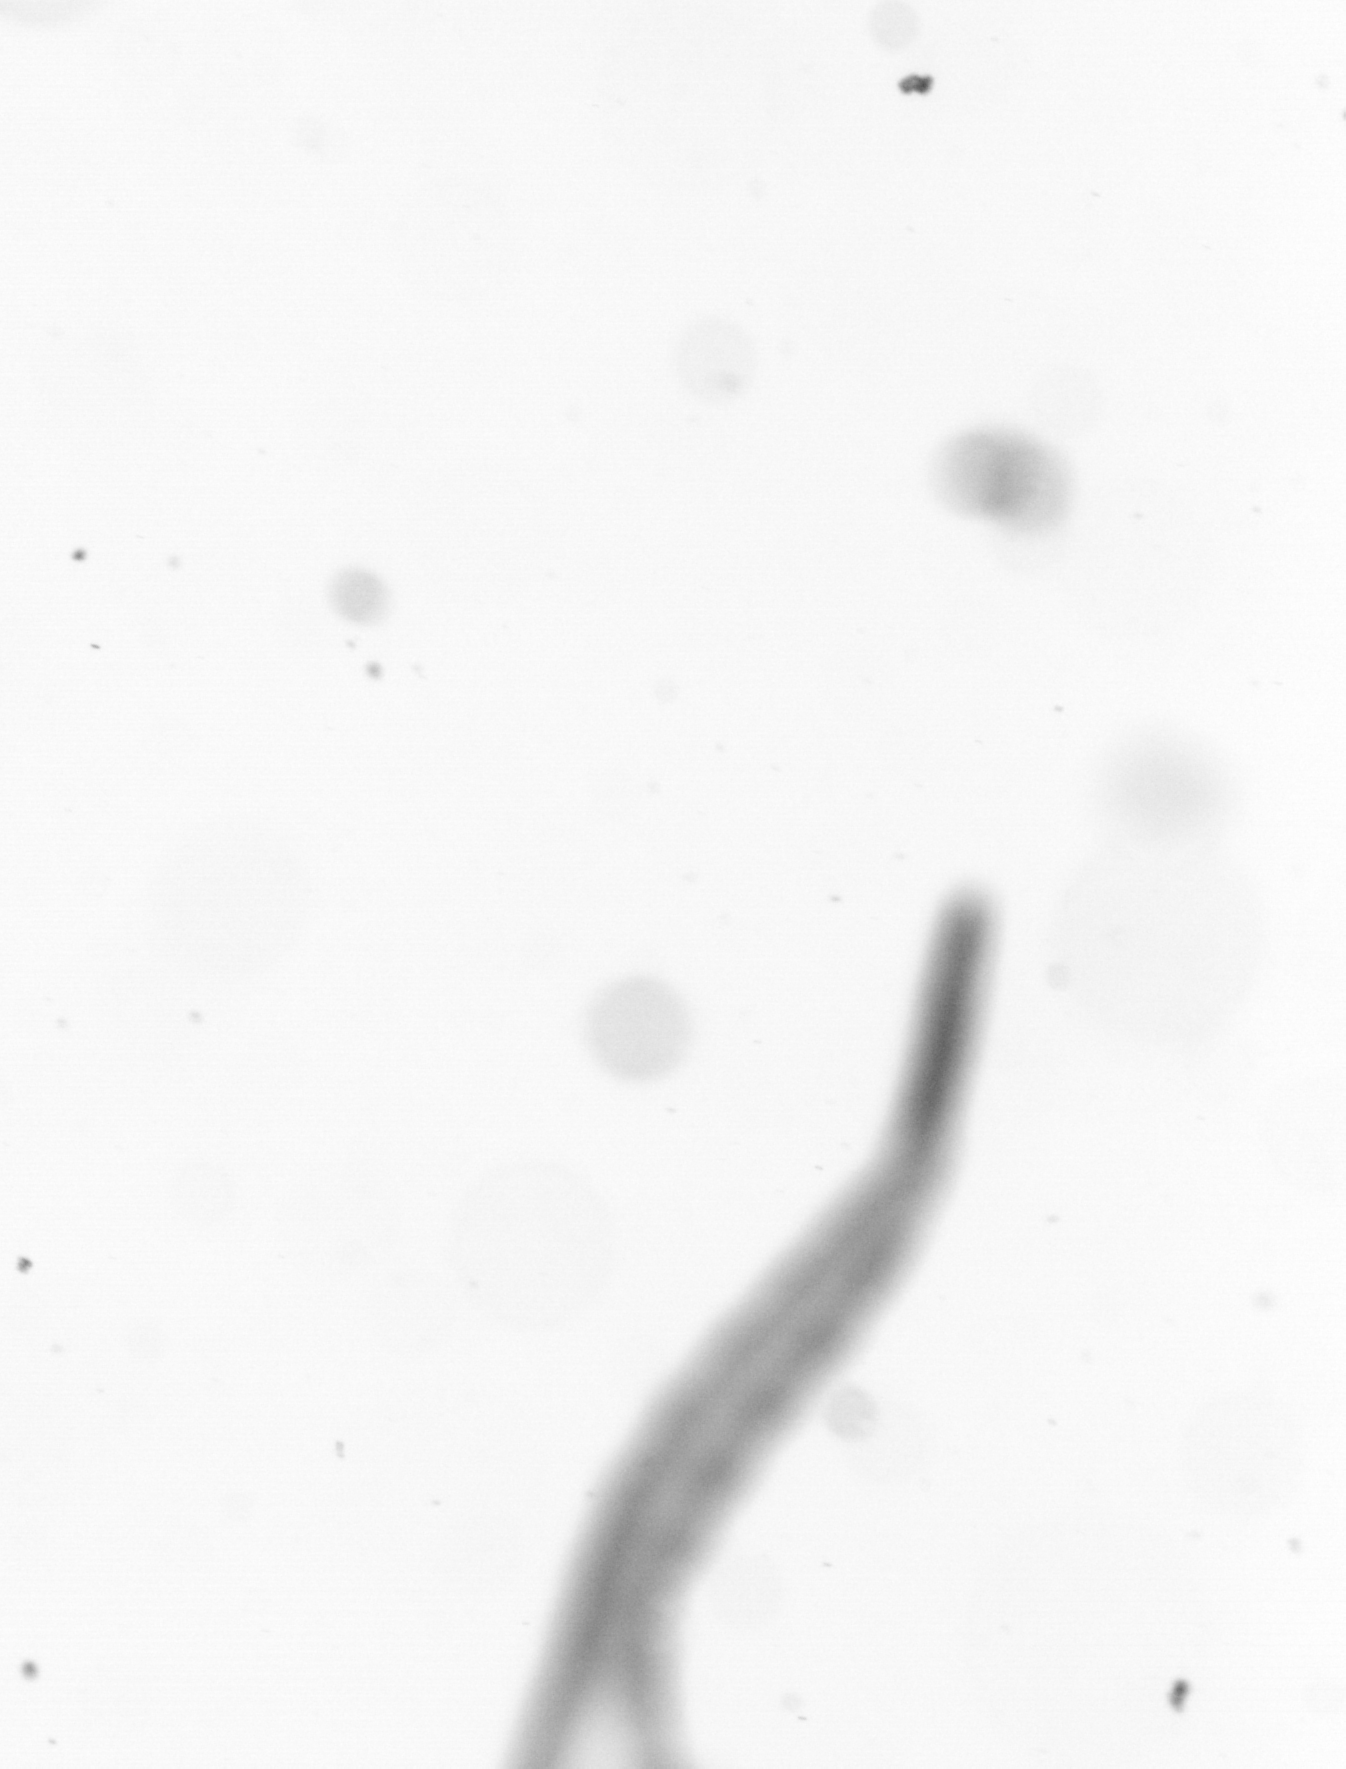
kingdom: Animalia
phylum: Chordata
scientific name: Chordata
